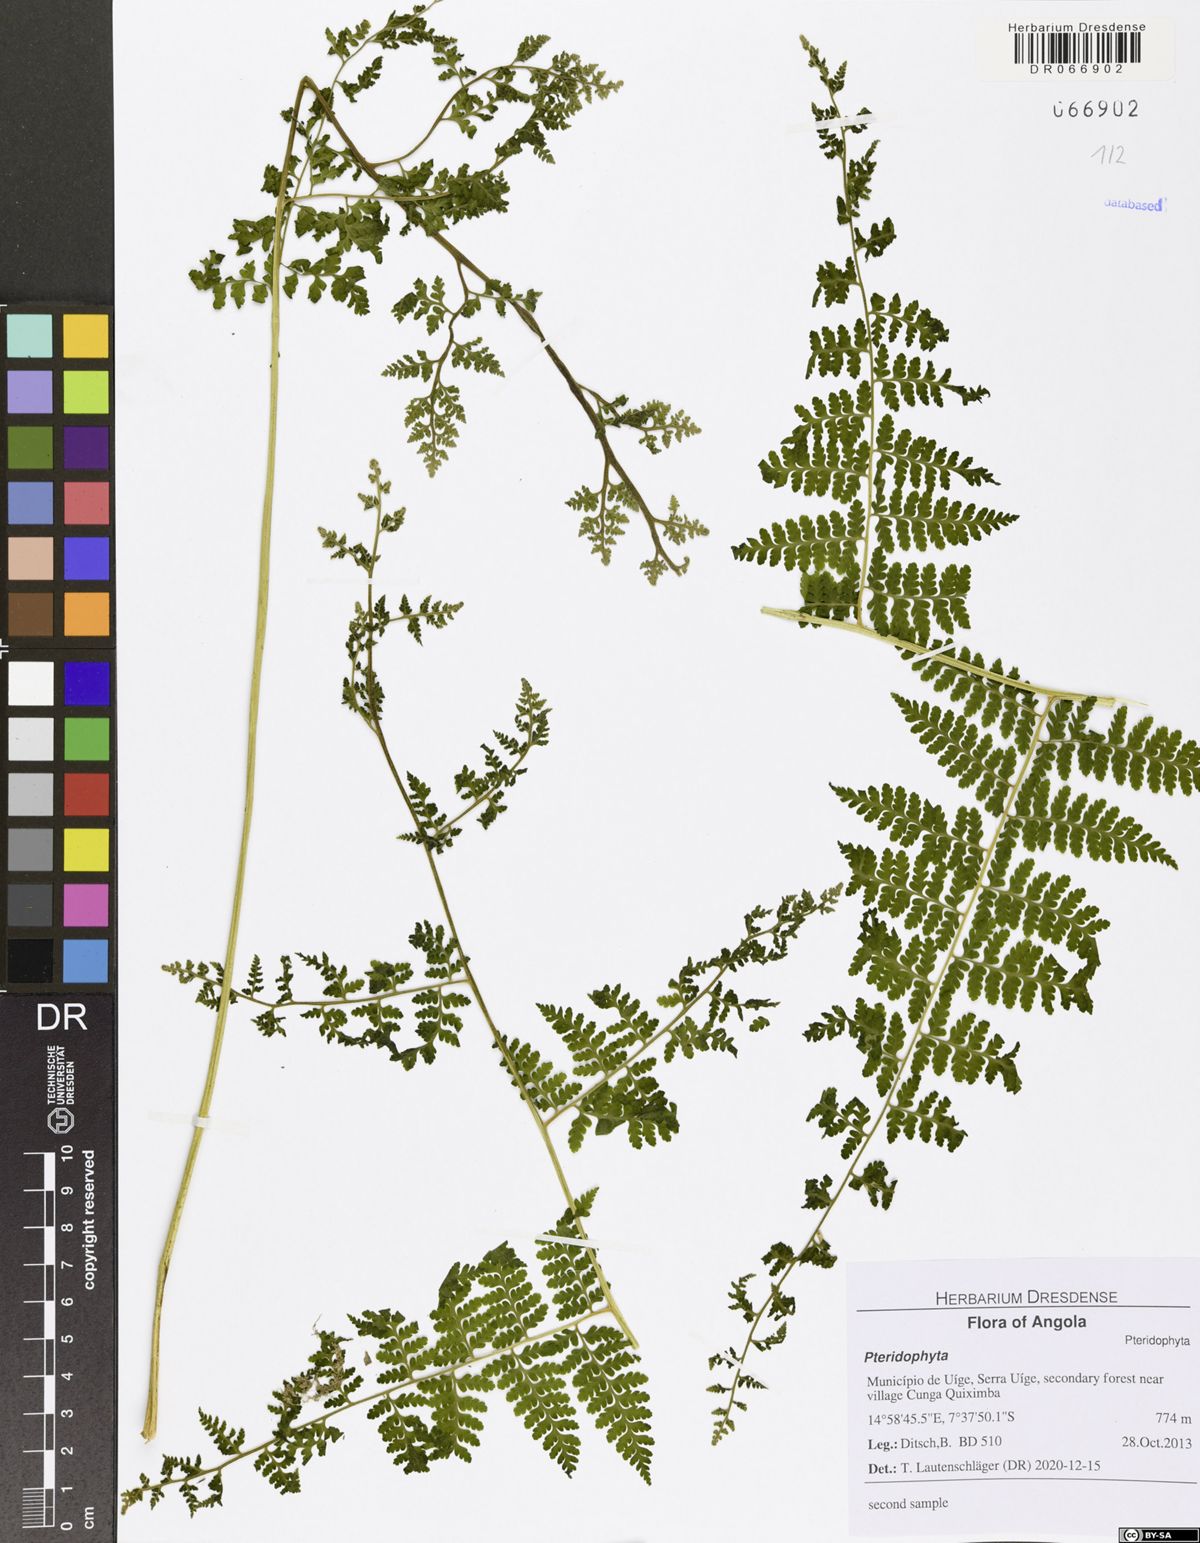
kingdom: Plantae
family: Pteridophyta
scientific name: Pteridophyta
